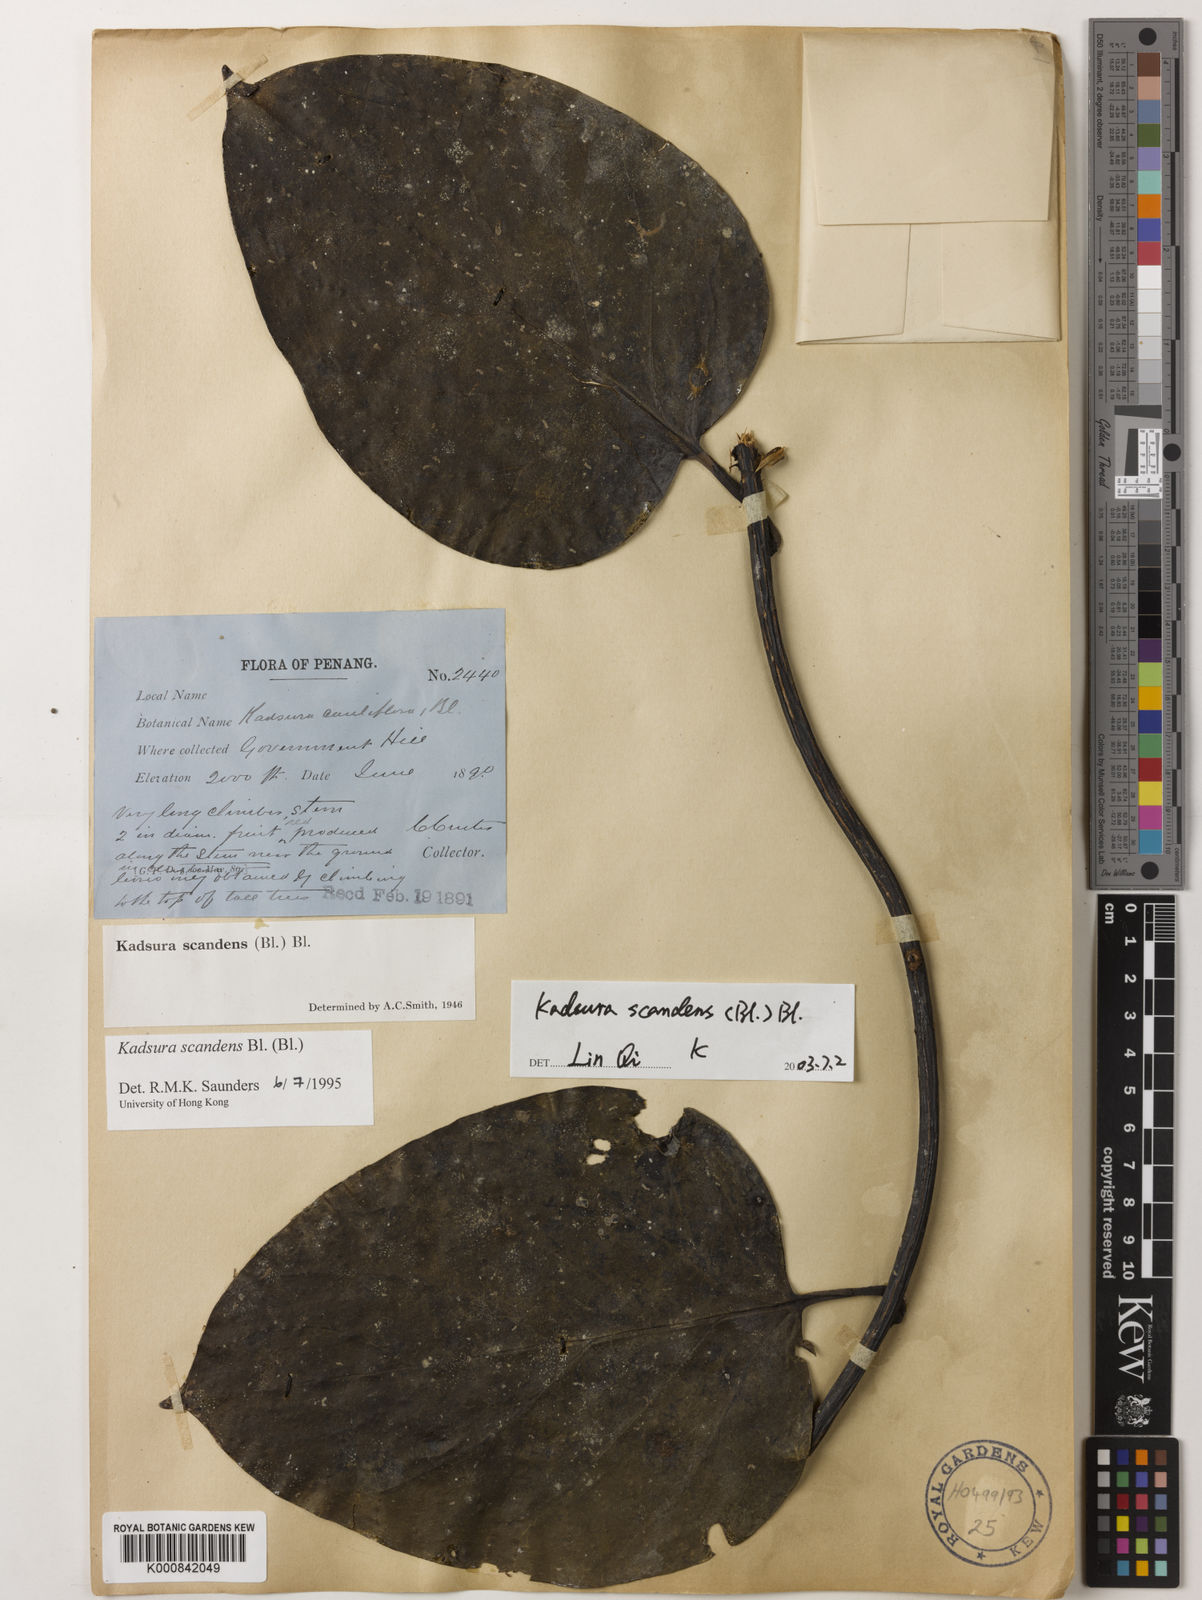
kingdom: Plantae
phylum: Tracheophyta
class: Magnoliopsida
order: Austrobaileyales
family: Schisandraceae
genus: Kadsura
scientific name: Kadsura scandens
